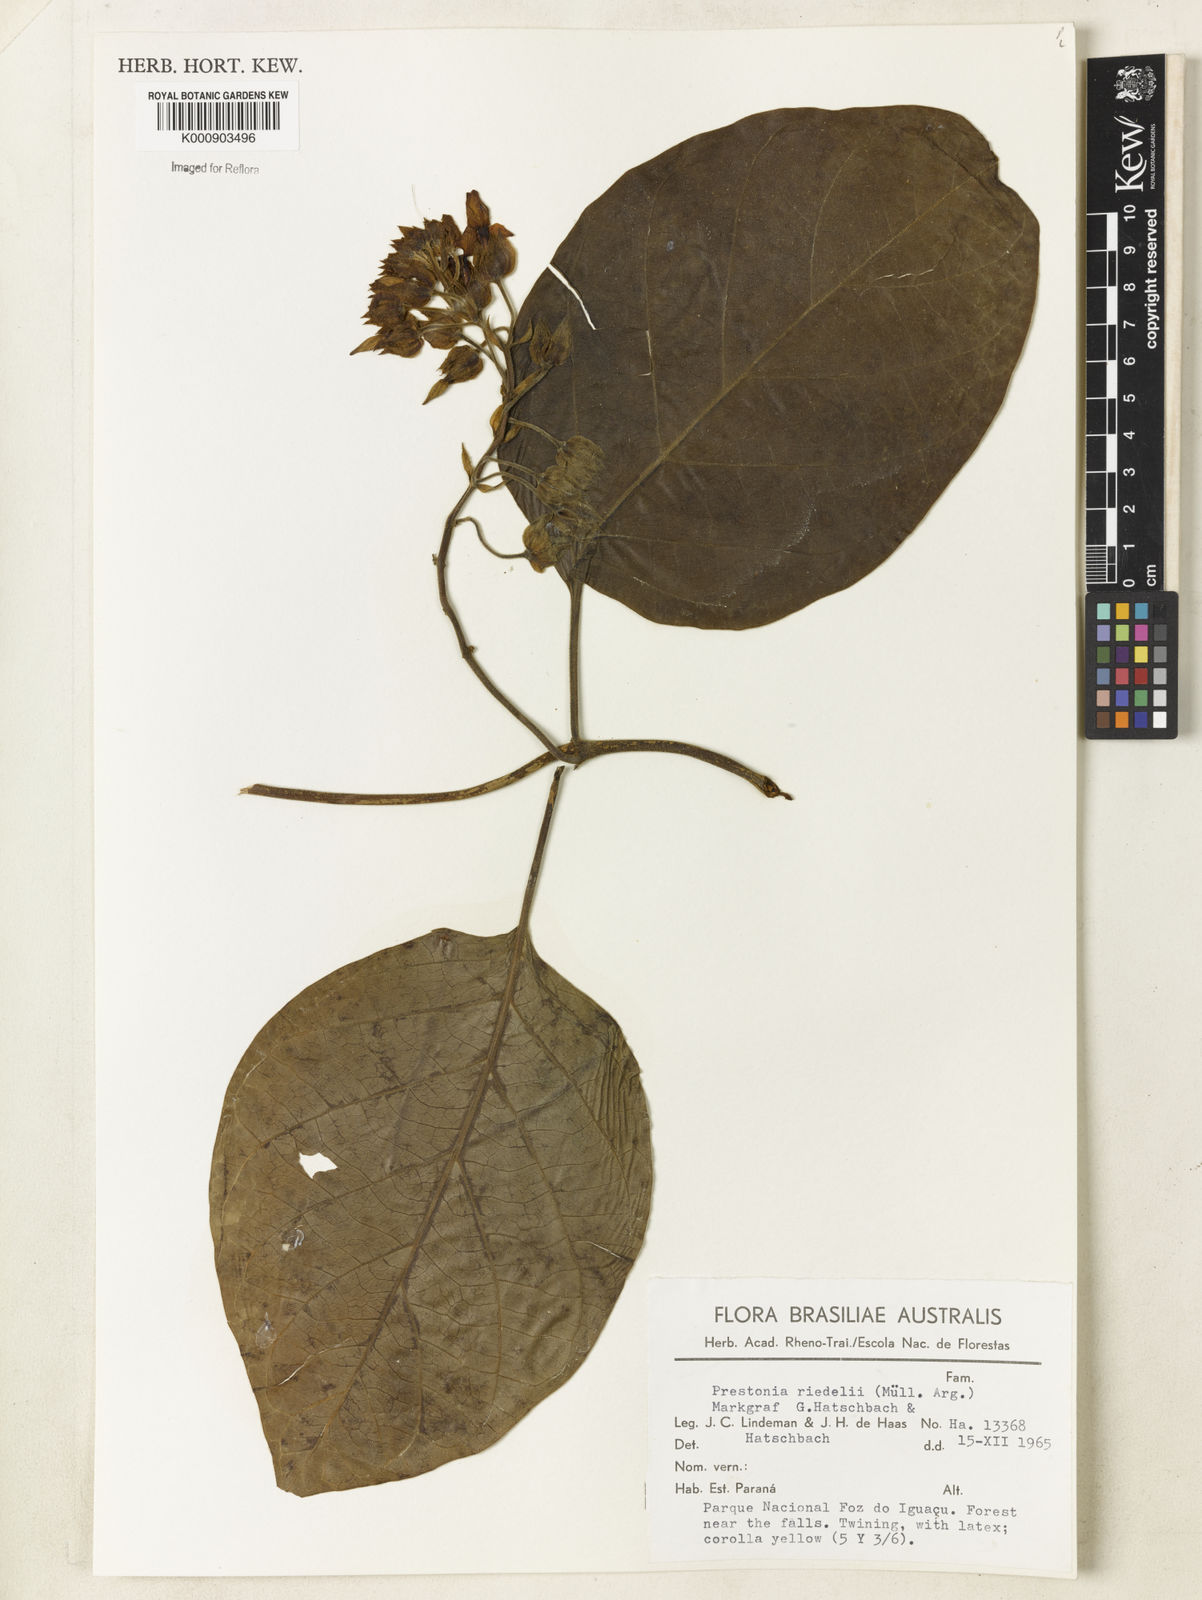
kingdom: Plantae
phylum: Tracheophyta
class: Magnoliopsida
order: Gentianales
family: Apocynaceae
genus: Prestonia
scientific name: Prestonia
